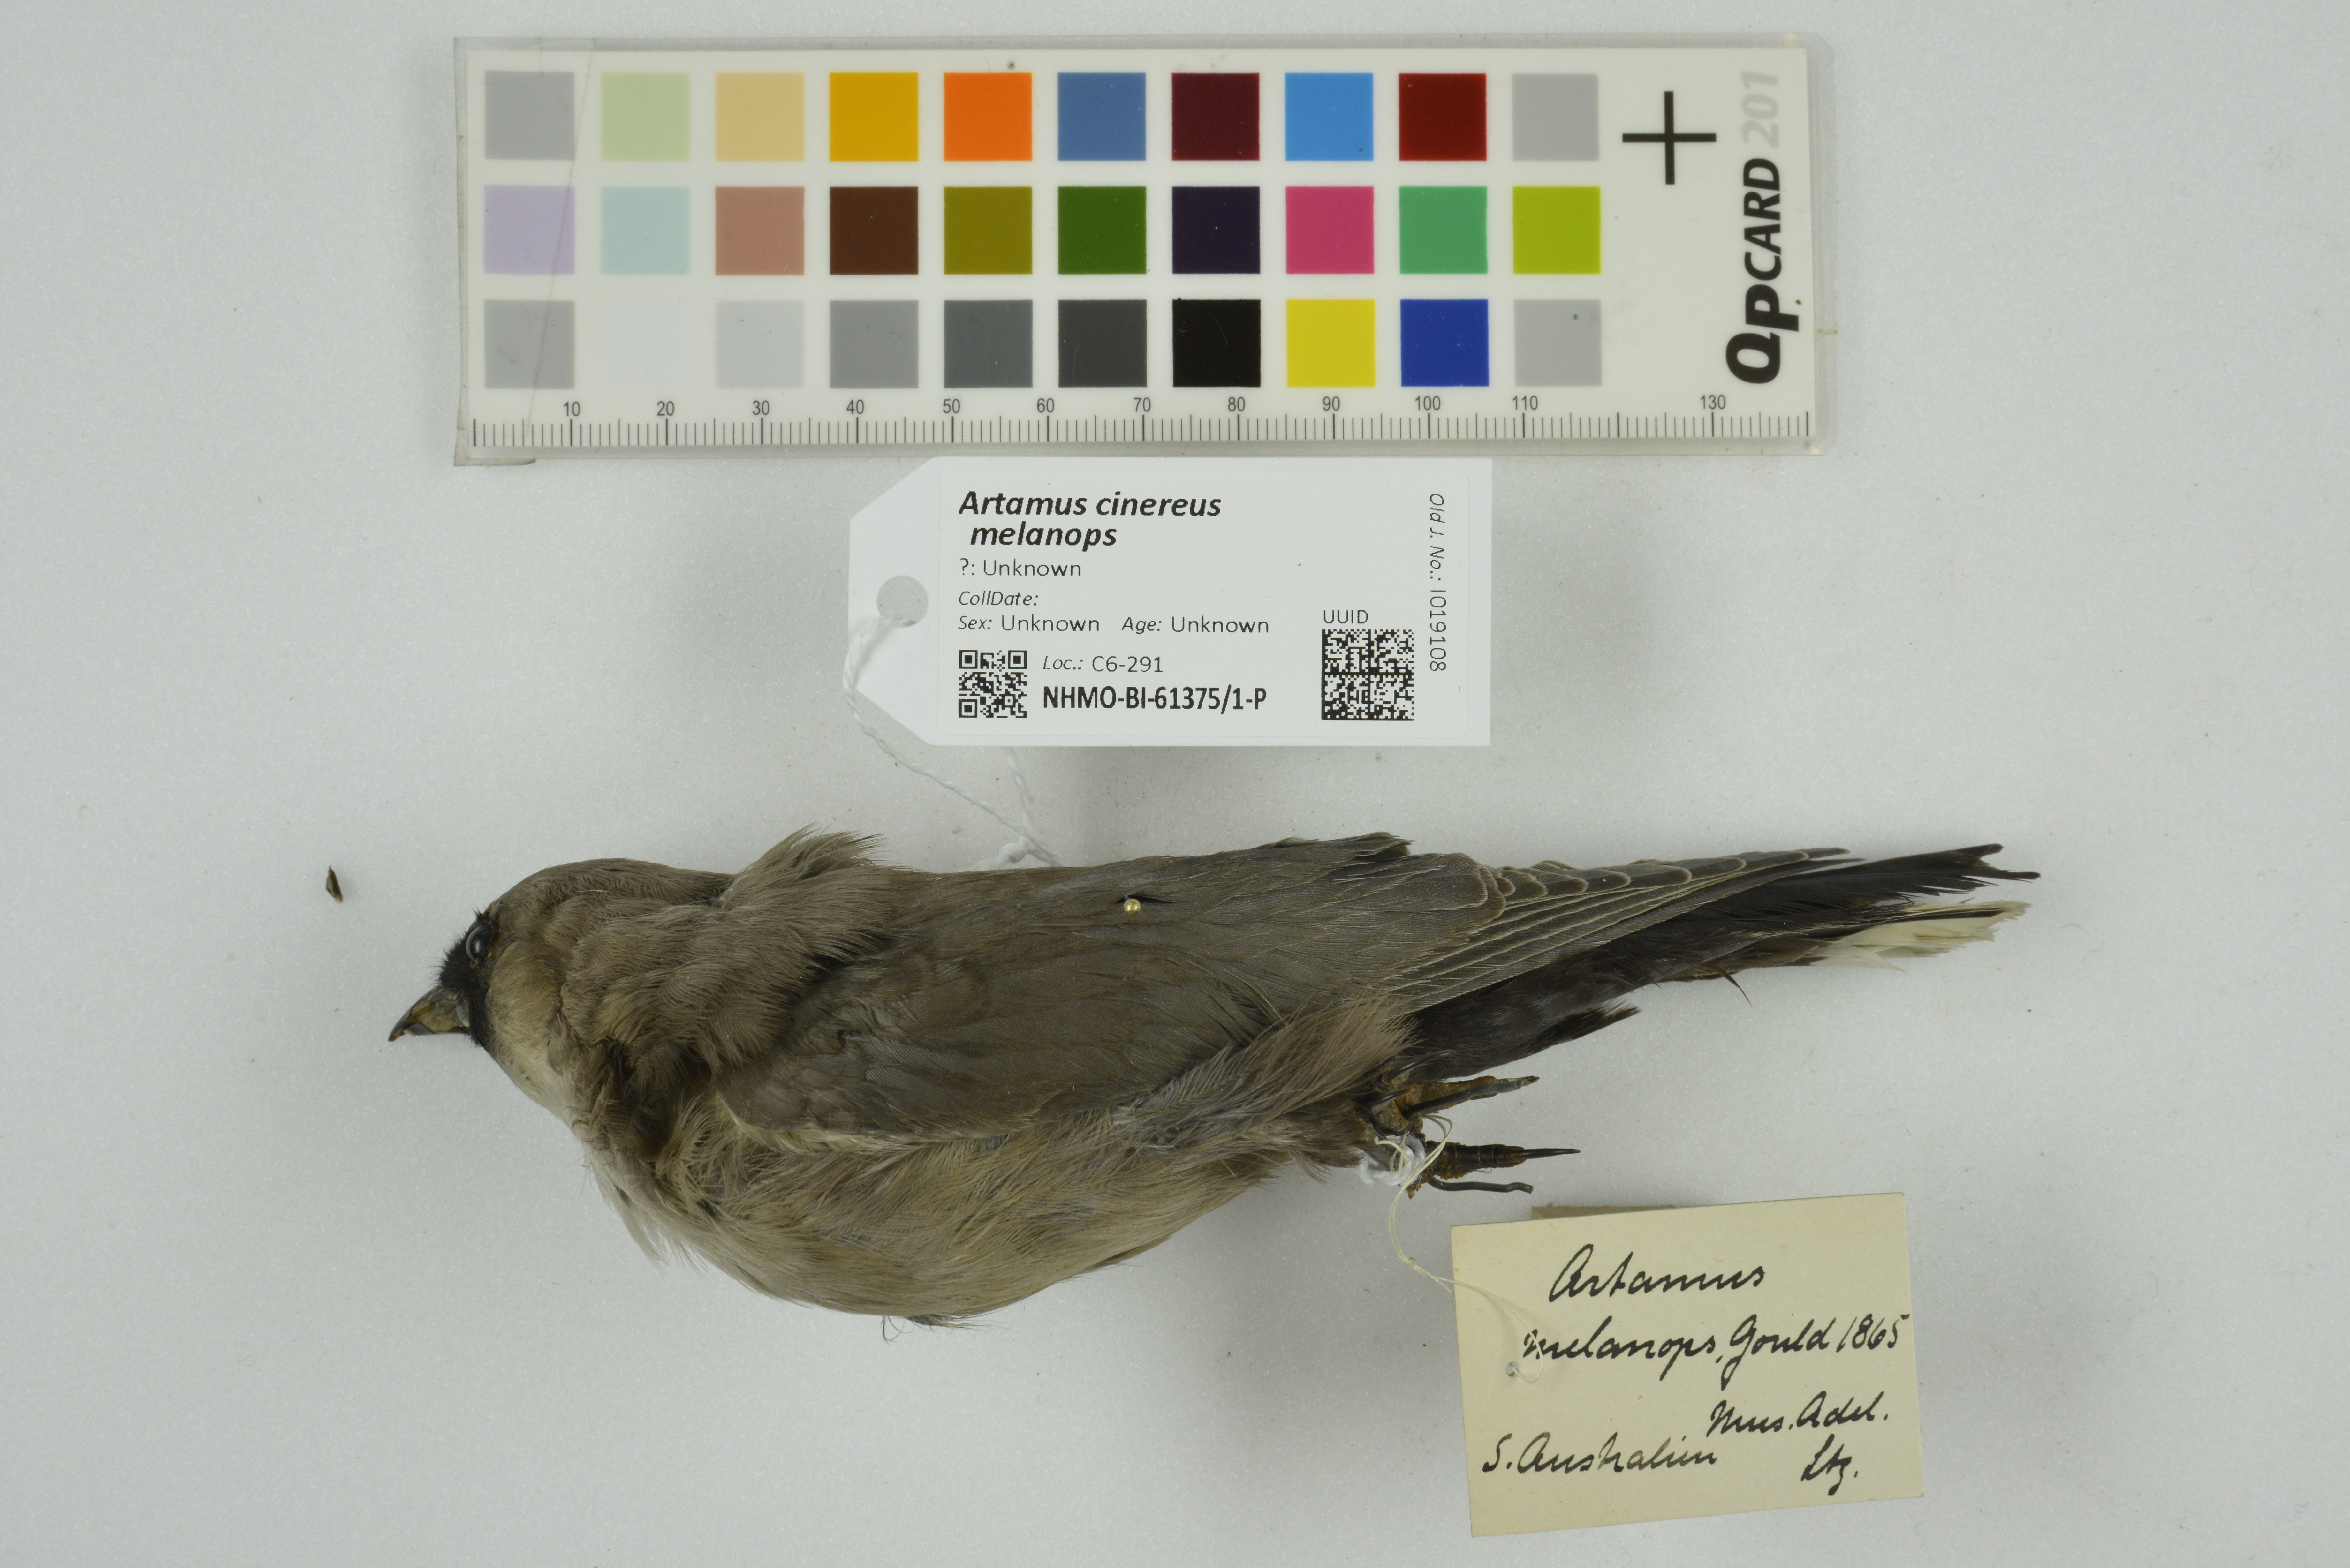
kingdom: Animalia
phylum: Chordata
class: Aves
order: Passeriformes
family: Artamidae
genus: Artamus
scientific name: Artamus cinereus
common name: Black-faced woodswallow
